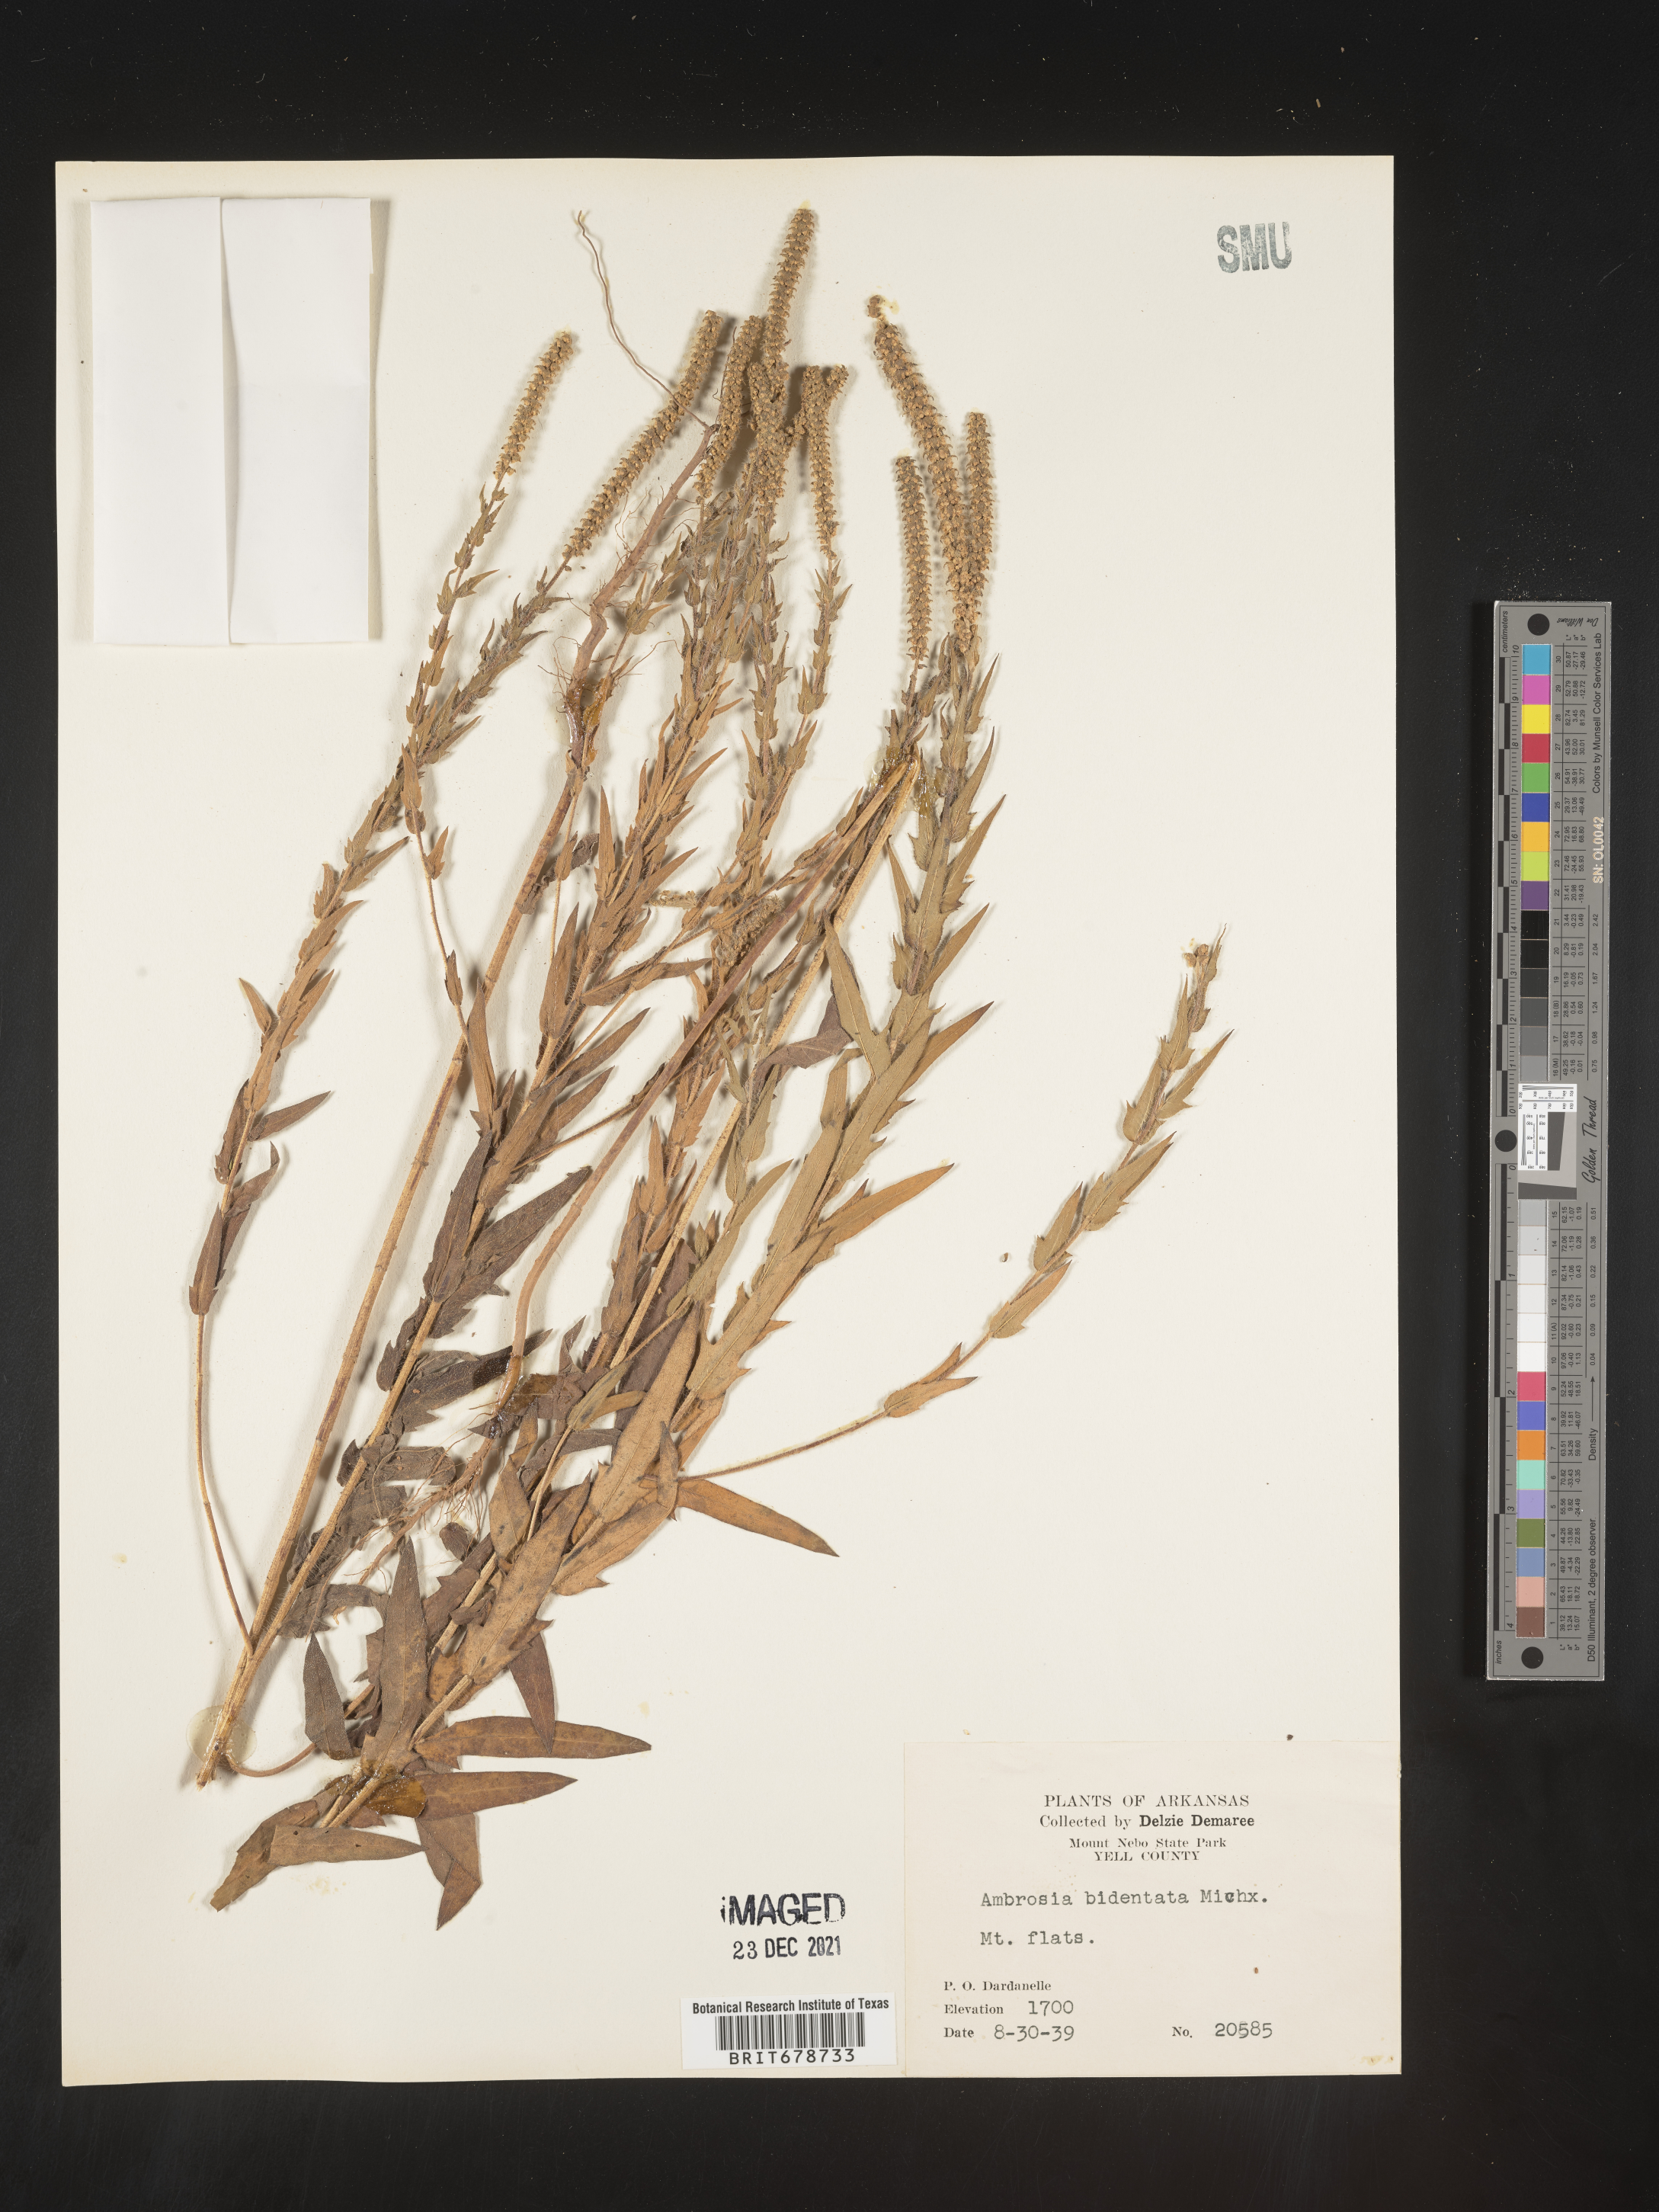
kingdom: Plantae
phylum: Tracheophyta
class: Magnoliopsida
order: Asterales
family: Asteraceae
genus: Ambrosia
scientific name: Ambrosia bidentata
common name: Southern ragweed
